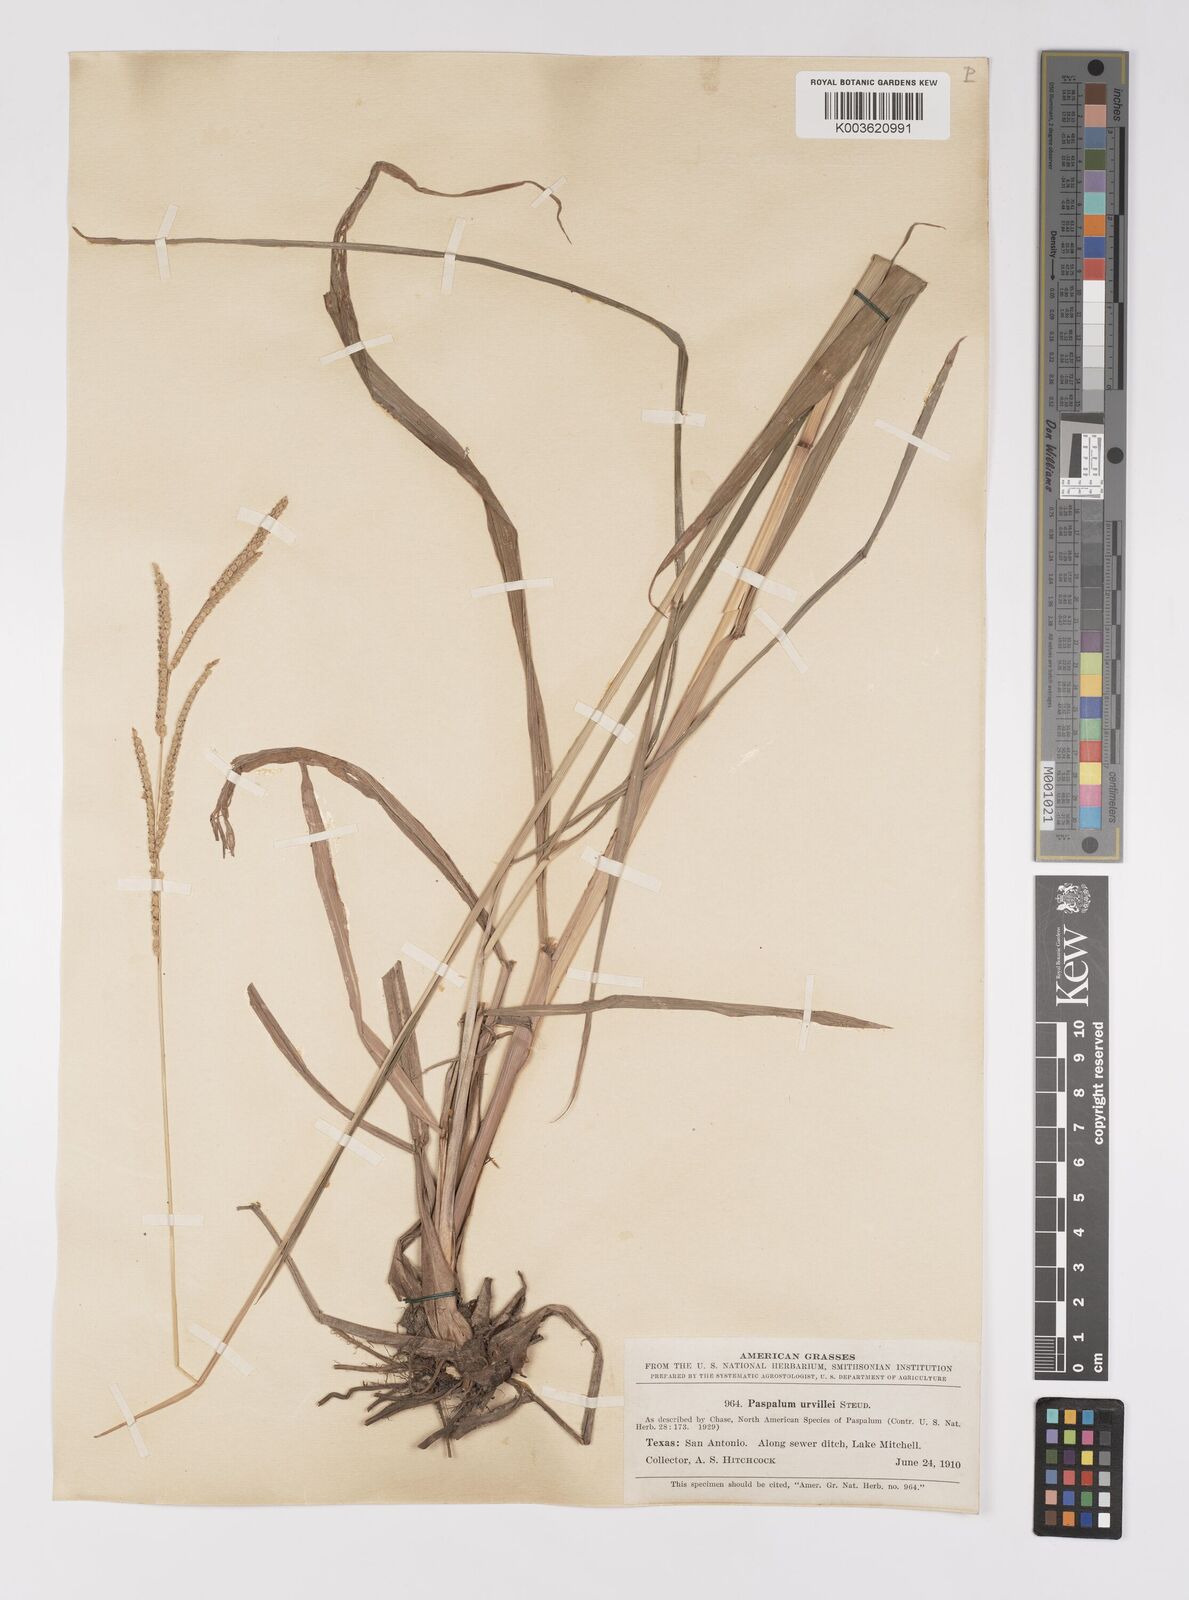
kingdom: Plantae
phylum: Tracheophyta
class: Liliopsida
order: Poales
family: Poaceae
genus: Paspalum
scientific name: Paspalum urvillei
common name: Vasey's grass
